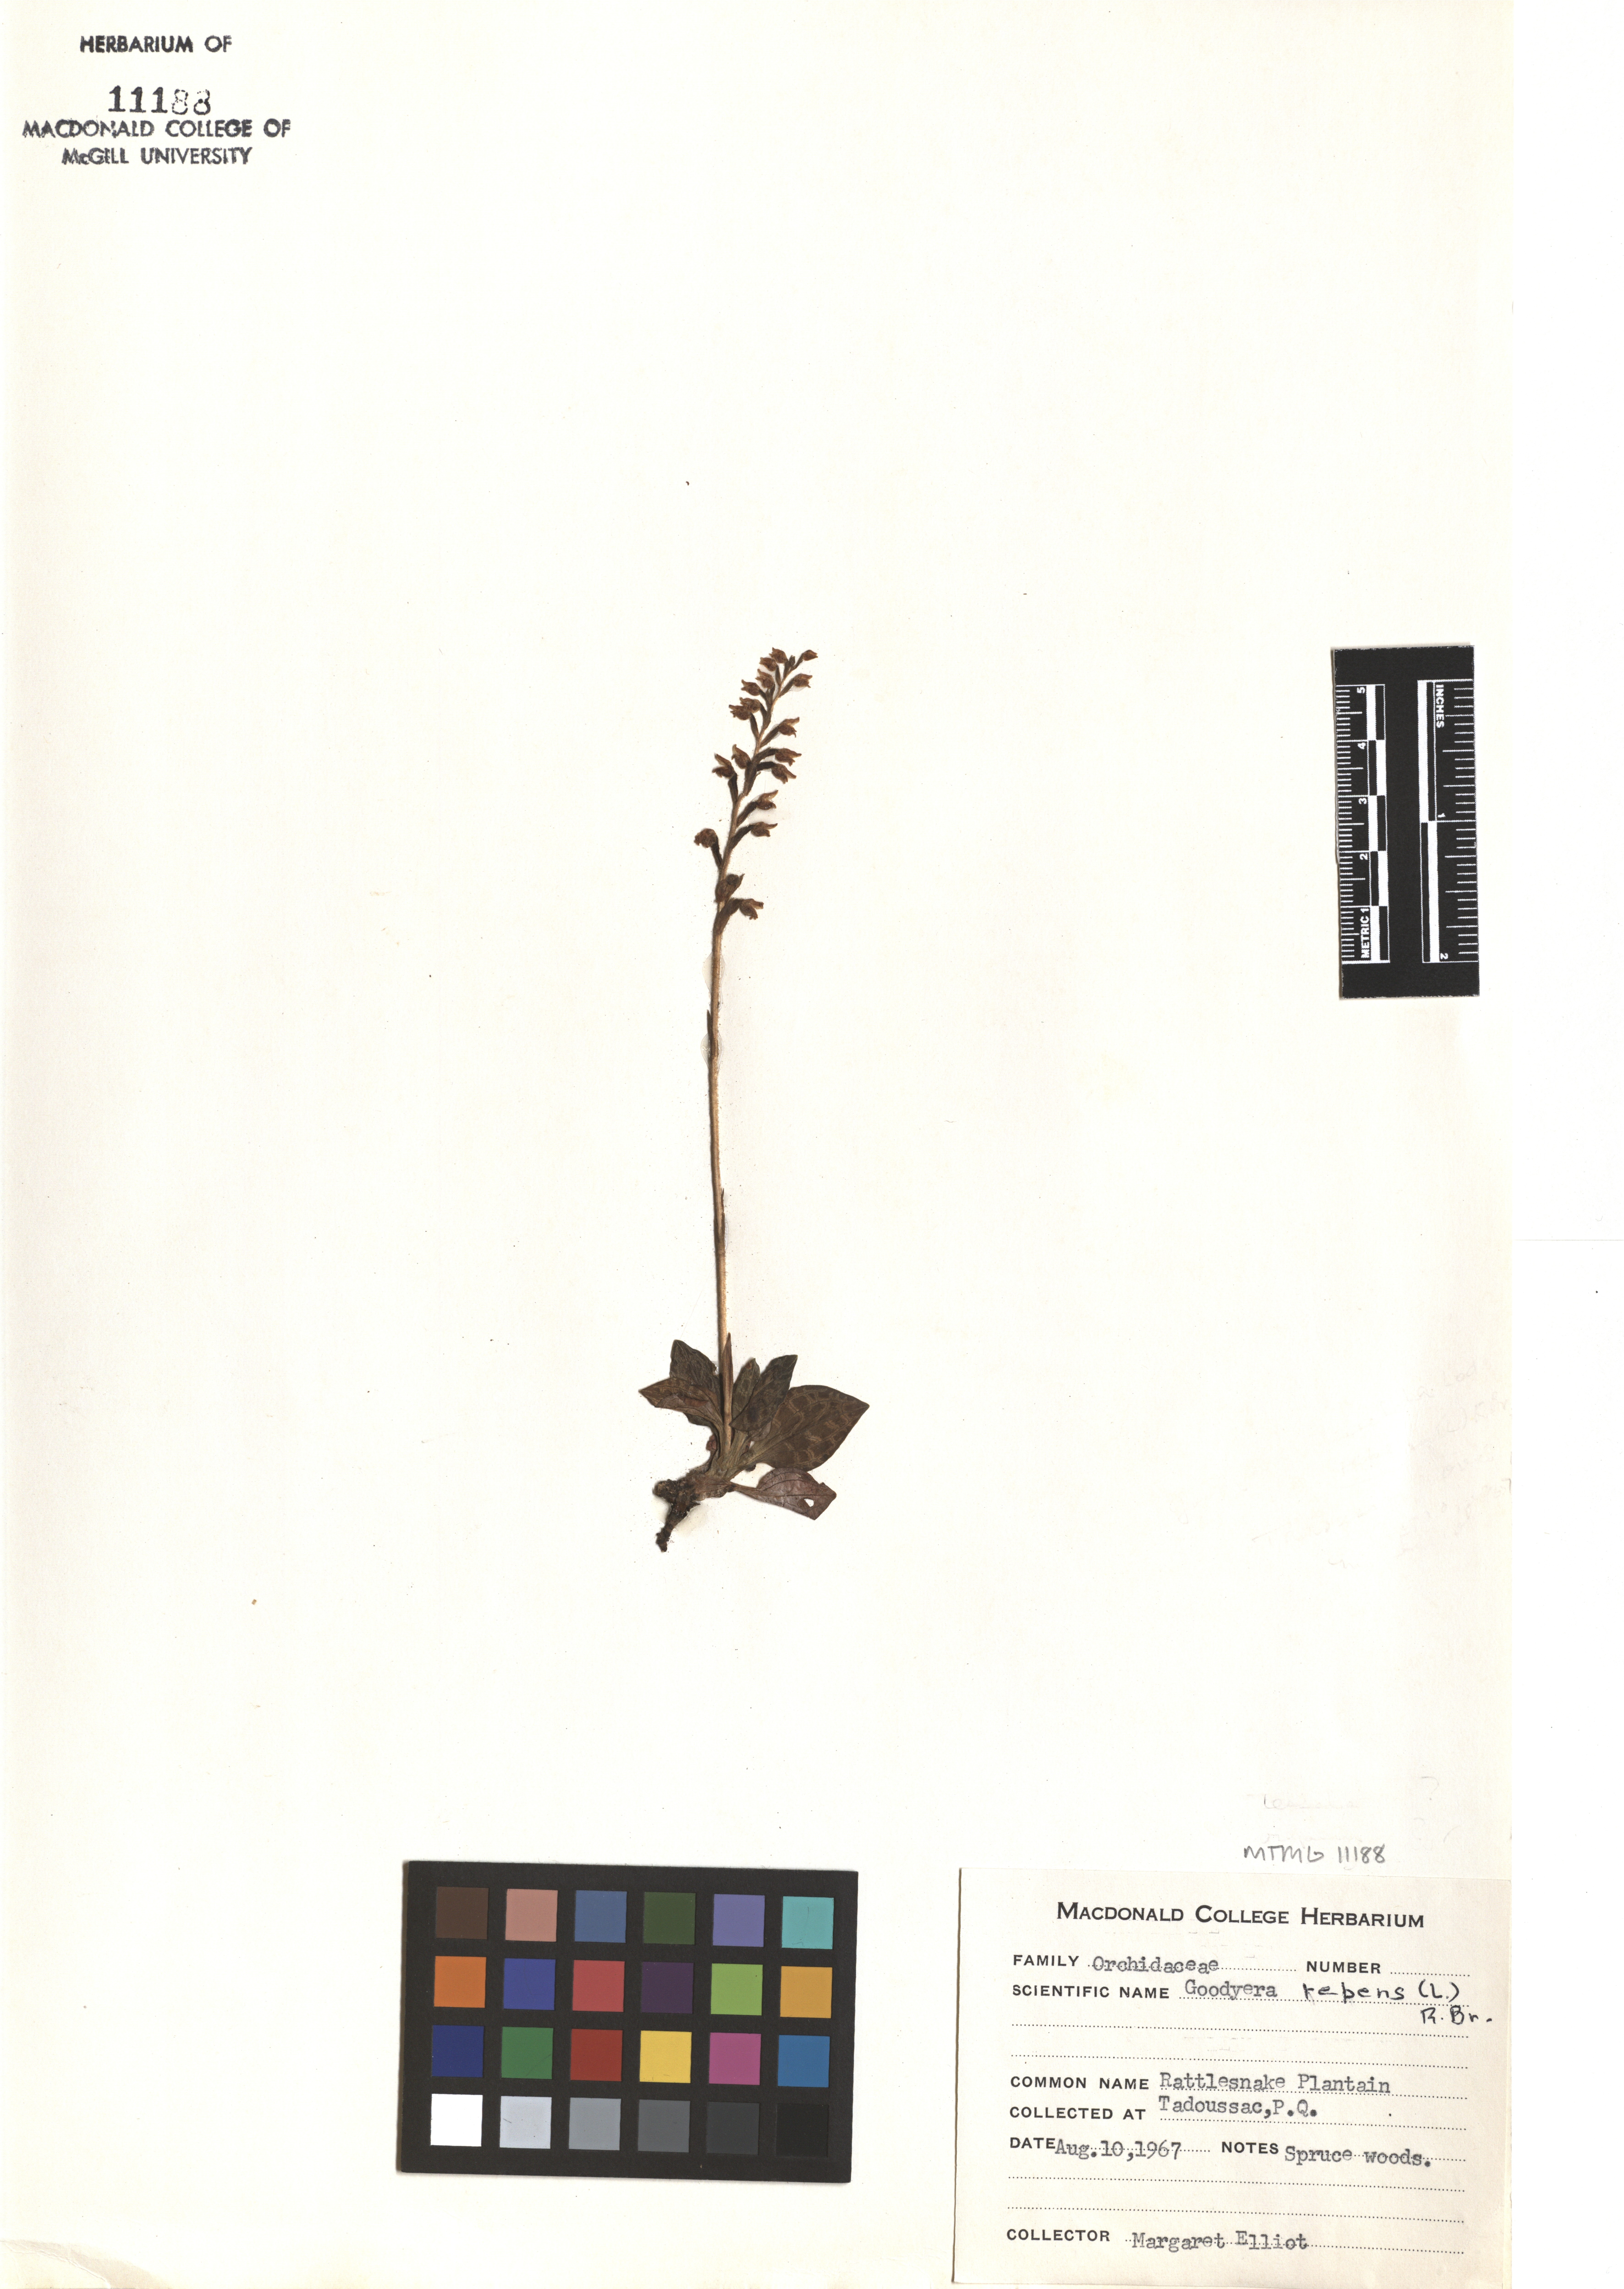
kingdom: Plantae
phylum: Tracheophyta
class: Liliopsida
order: Asparagales
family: Orchidaceae
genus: Goodyera
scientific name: Goodyera repens
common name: Creeping lady's-tresses
